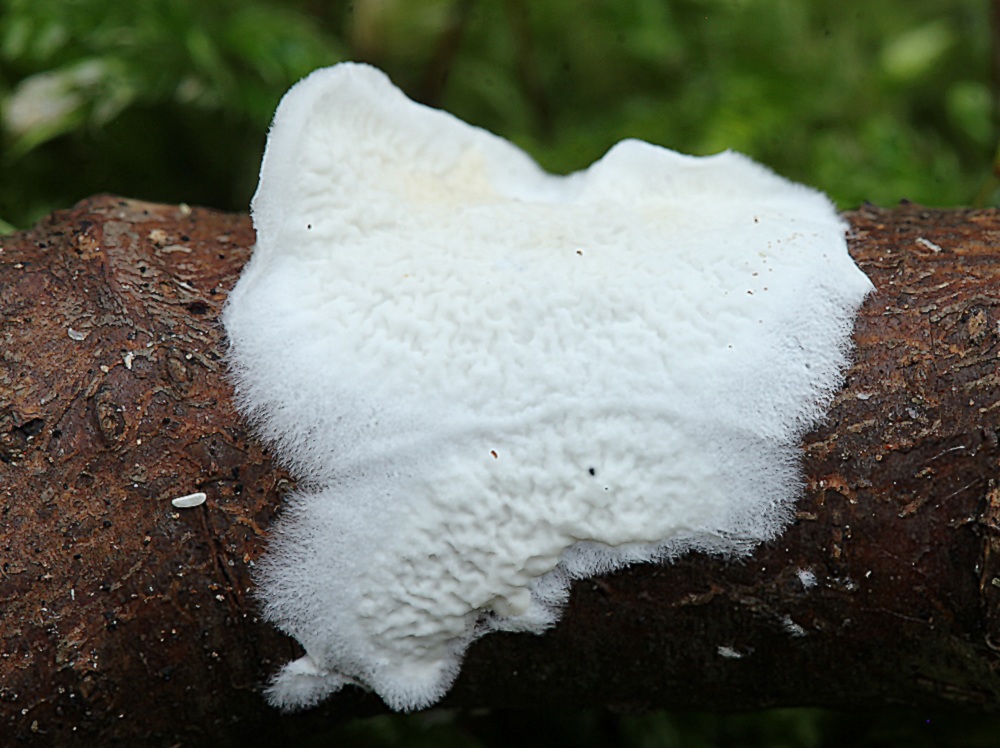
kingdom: Fungi
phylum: Basidiomycota
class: Agaricomycetes
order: Polyporales
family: Irpicaceae
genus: Byssomerulius
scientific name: Byssomerulius corium
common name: læder-åresvamp
